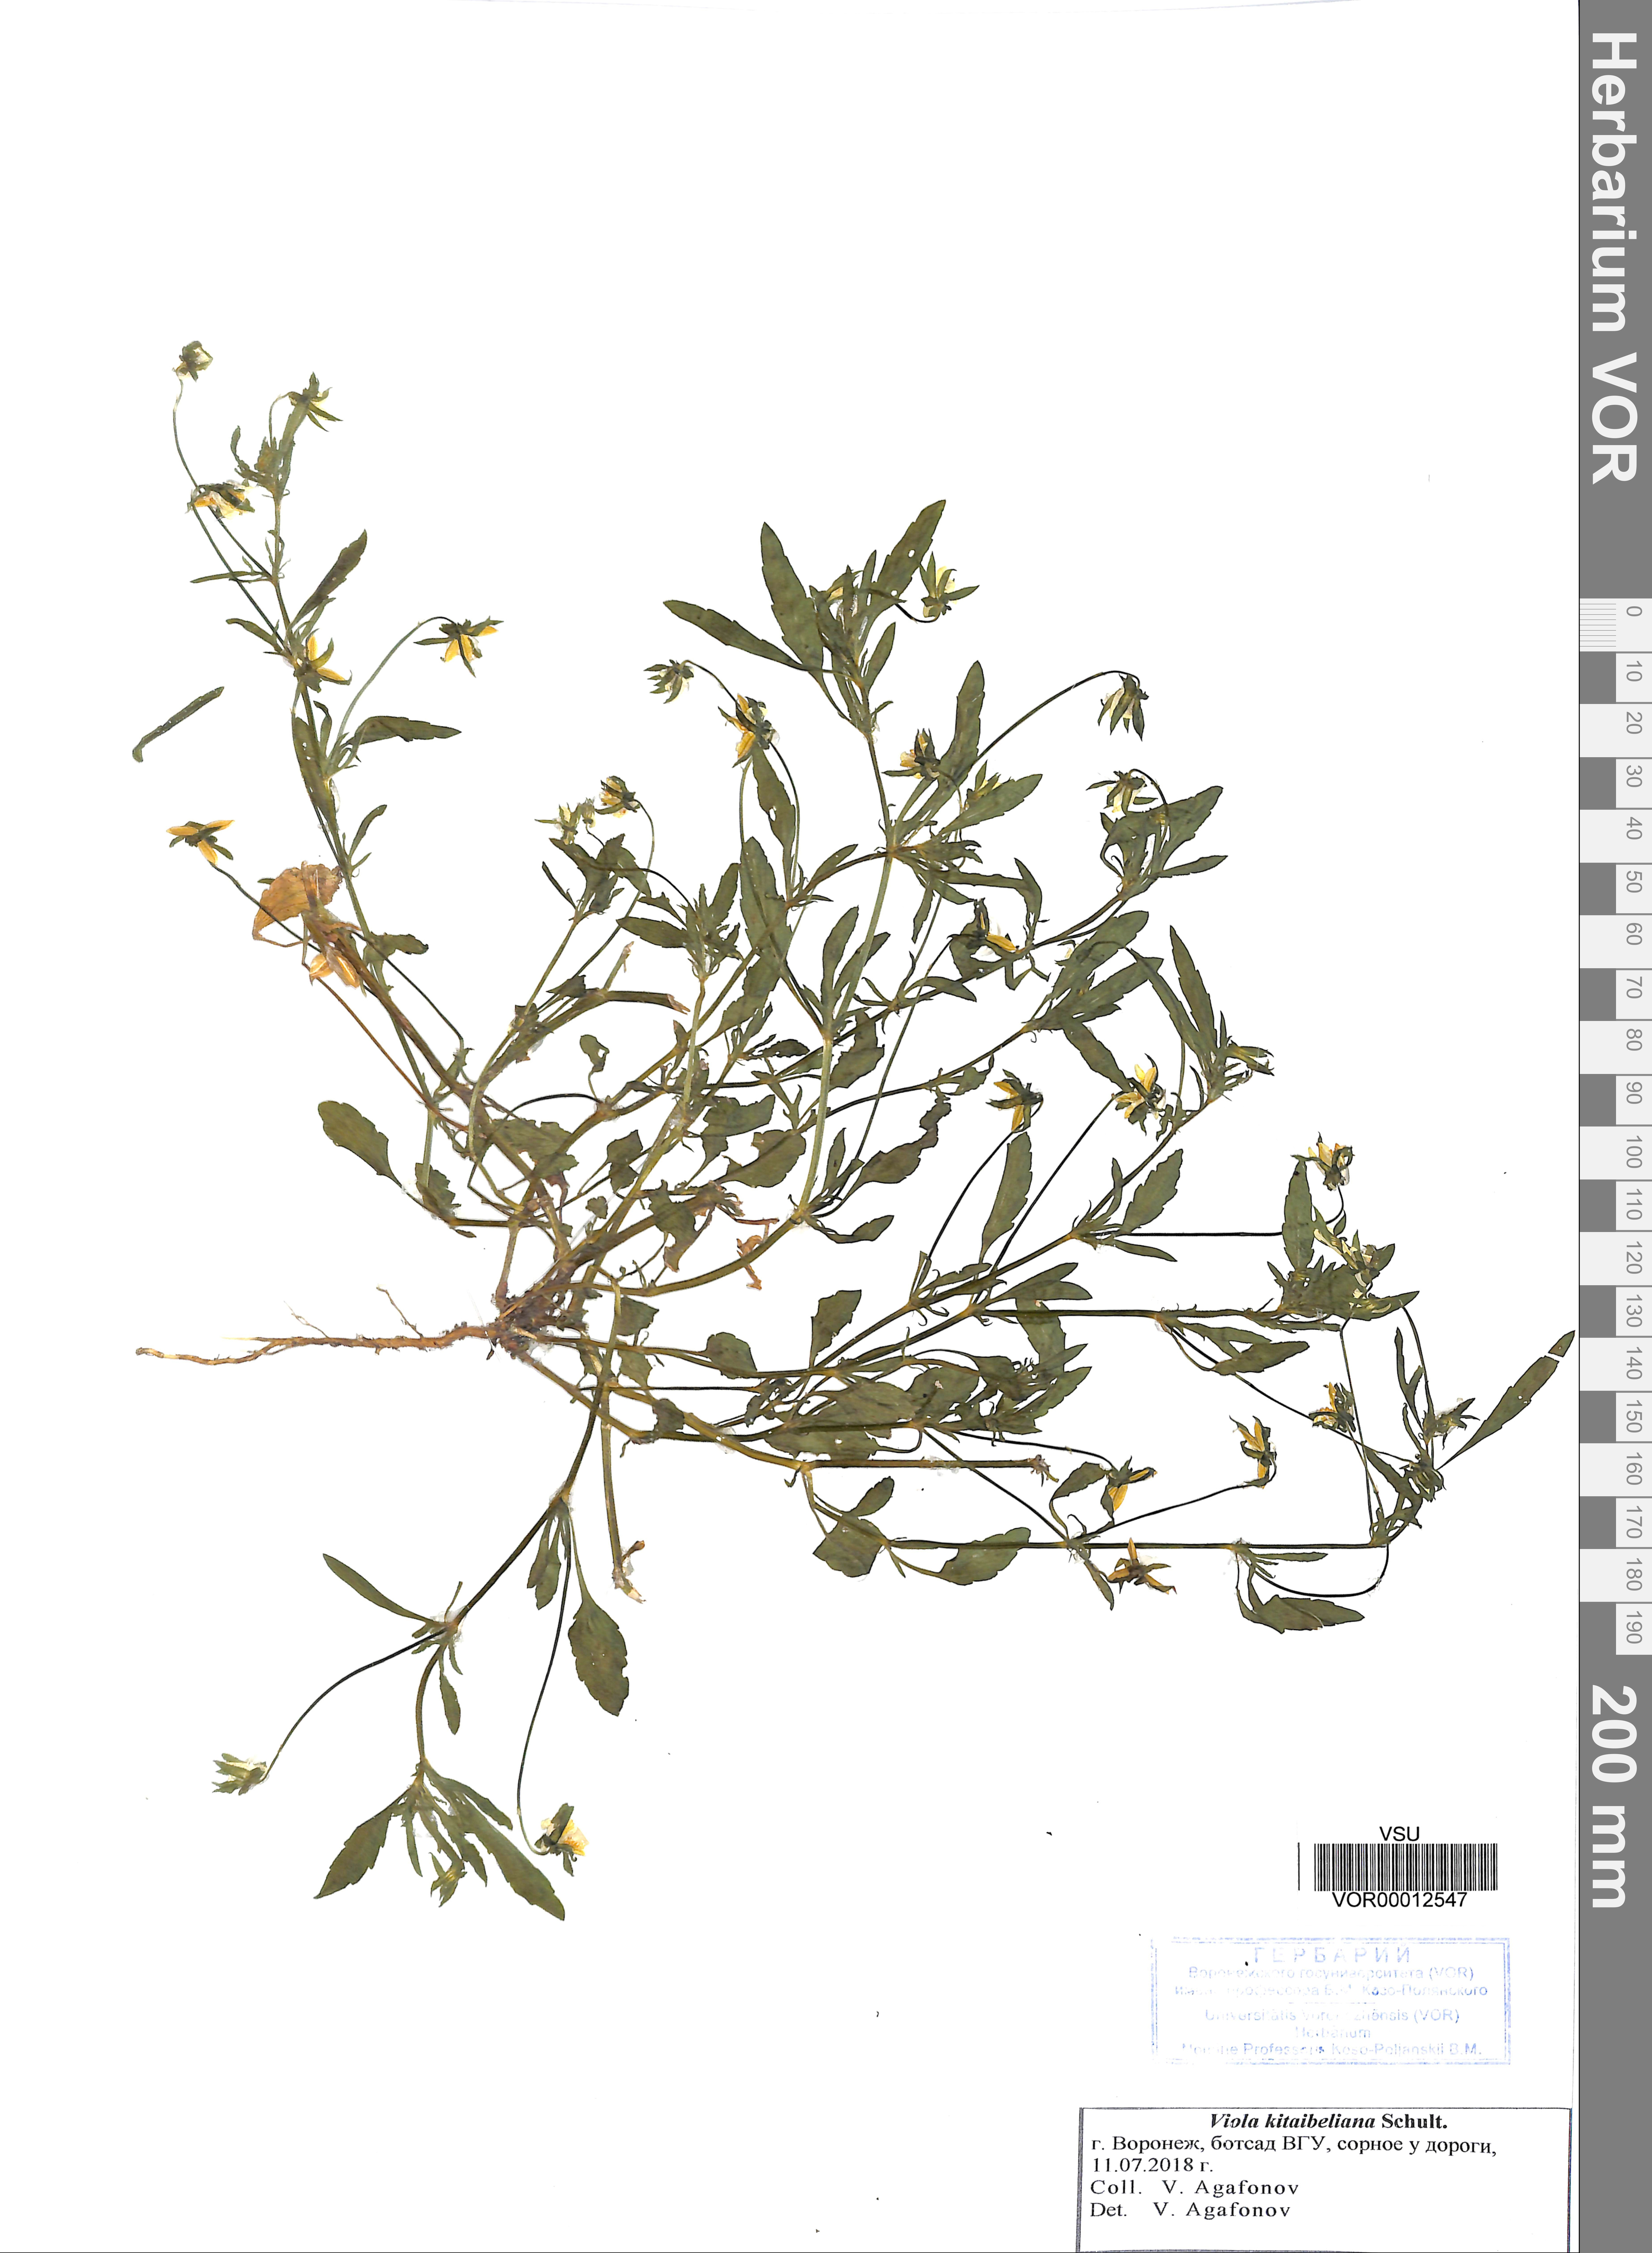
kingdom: Plantae
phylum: Tracheophyta
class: Magnoliopsida
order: Malpighiales
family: Violaceae
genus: Viola
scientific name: Viola kitaibeliana
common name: Dwarf pansy
